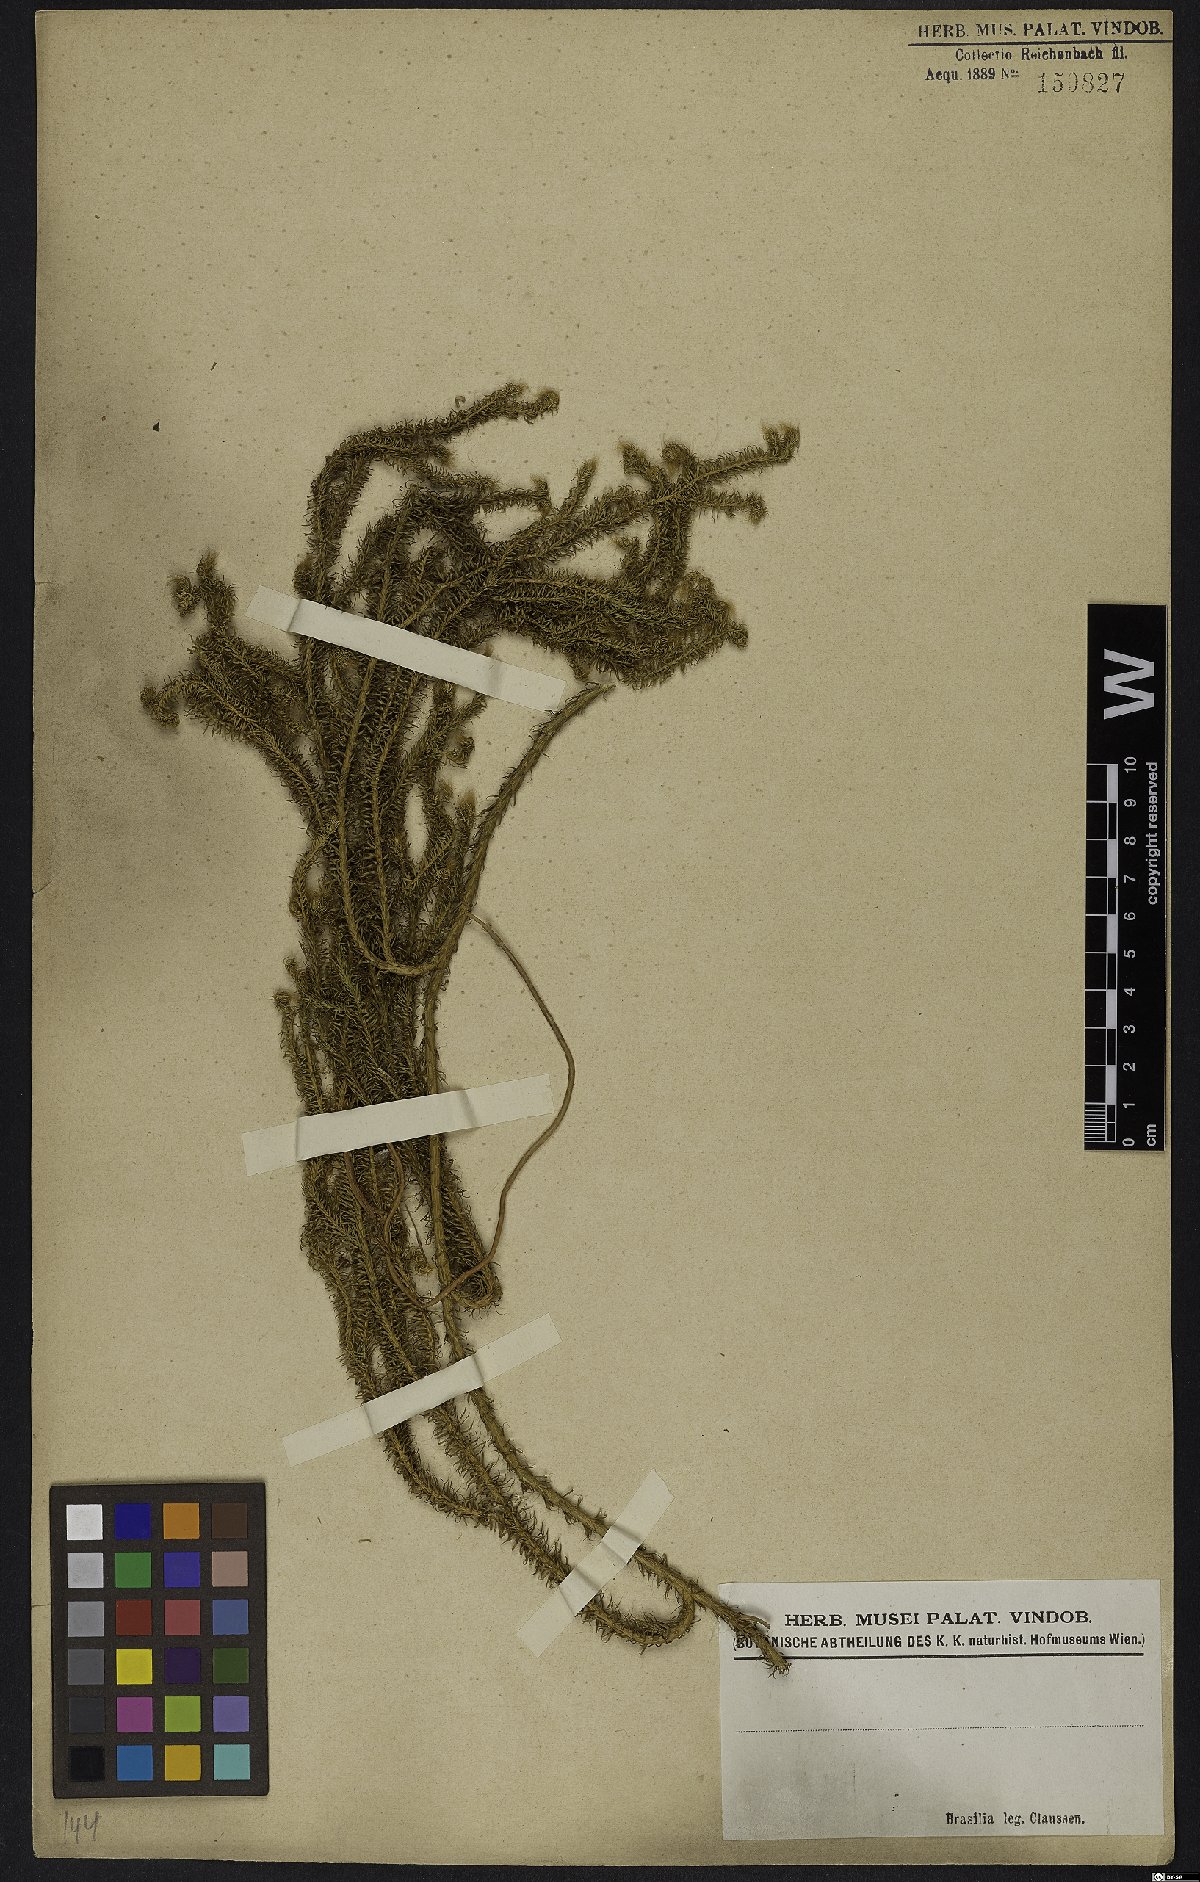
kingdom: Plantae
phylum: Tracheophyta
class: Lycopodiopsida
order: Lycopodiales
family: Lycopodiaceae
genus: Lycopodium
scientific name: Lycopodium
